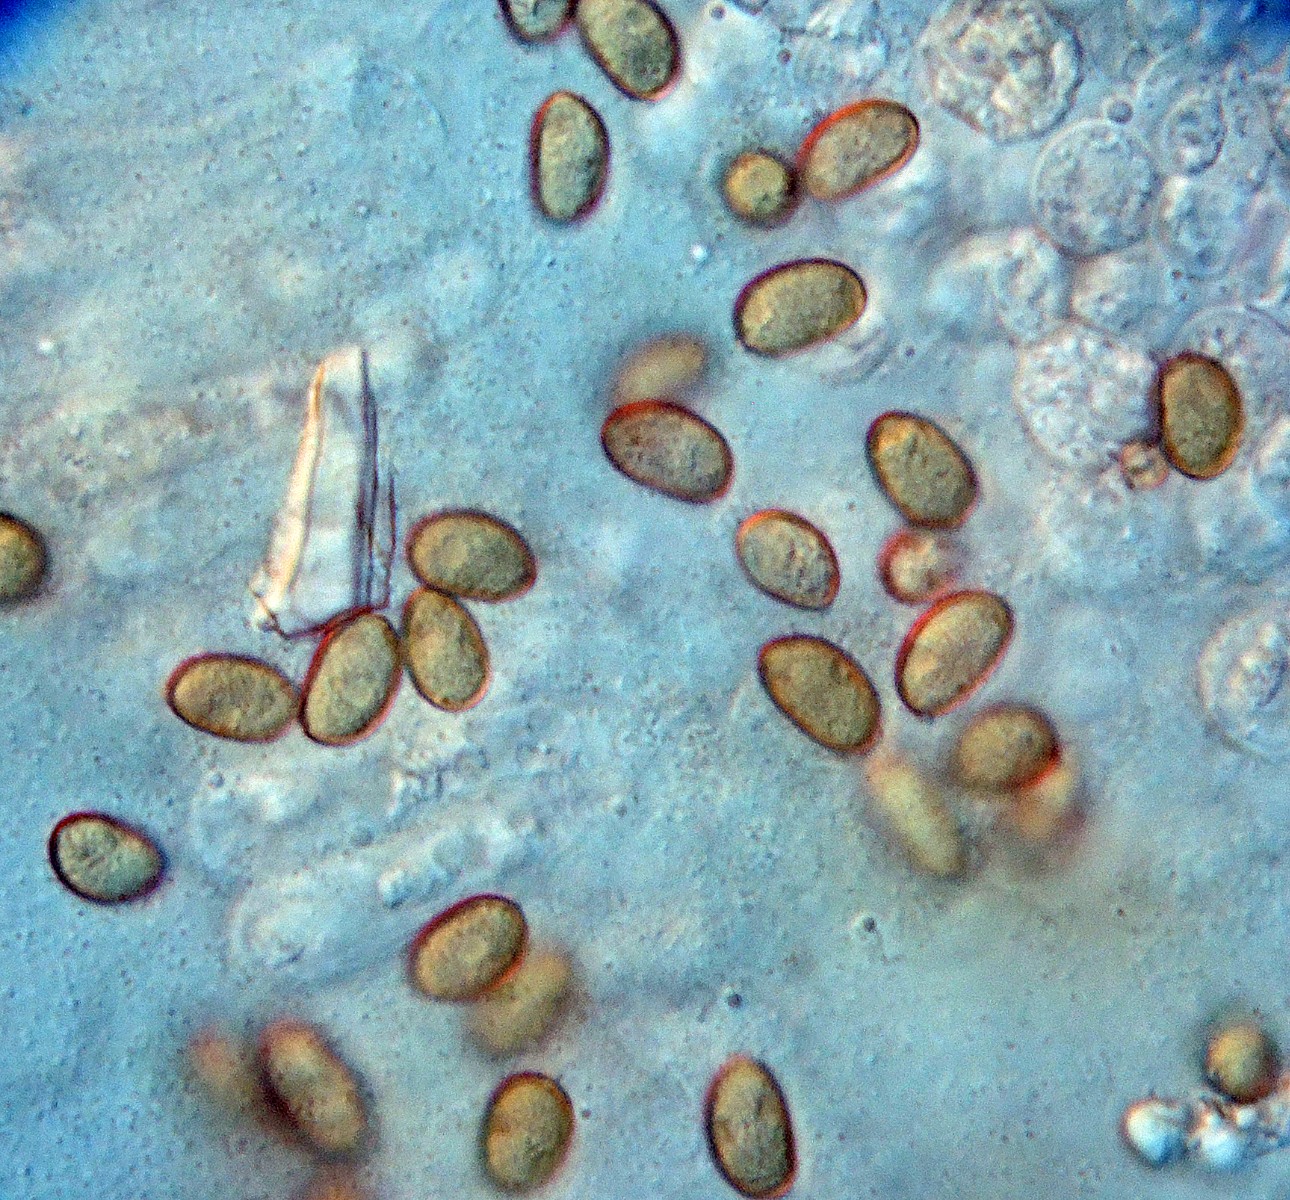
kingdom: Fungi
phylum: Basidiomycota
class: Agaricomycetes
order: Agaricales
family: Inocybaceae
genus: Pseudosperma
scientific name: Pseudosperma rimosum
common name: gulbladet trævlhat
